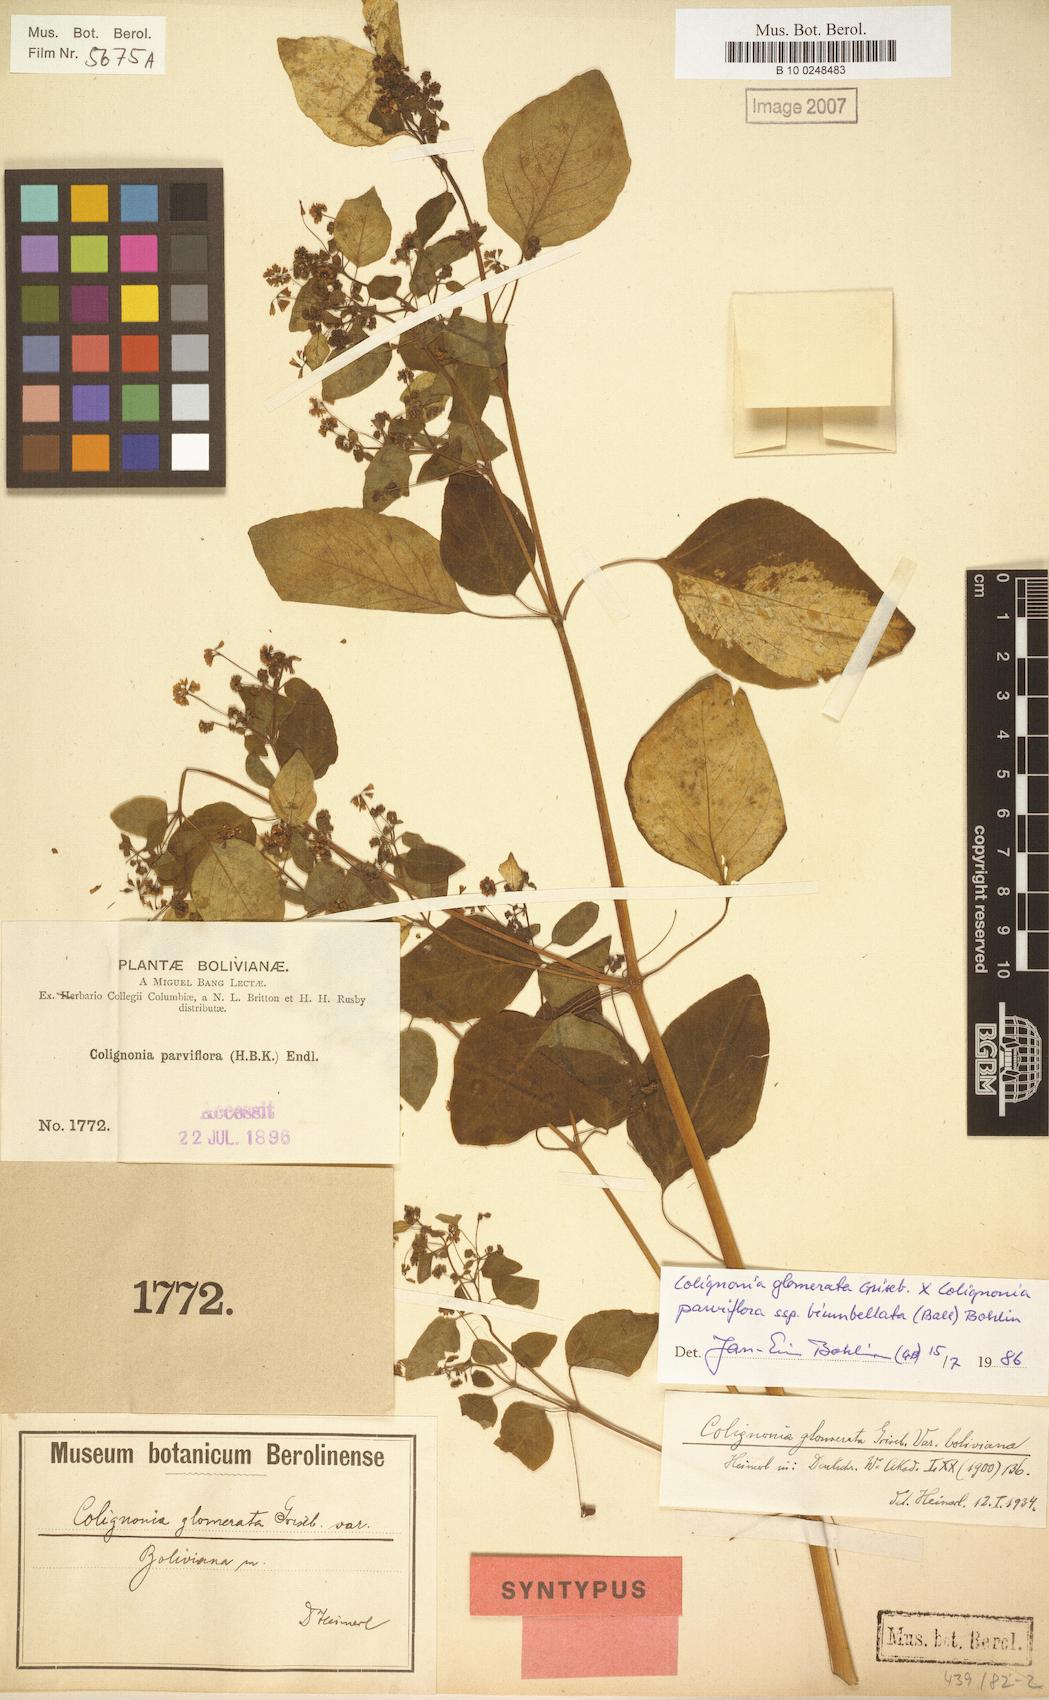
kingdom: Plantae
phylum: Tracheophyta
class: Magnoliopsida
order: Caryophyllales
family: Nyctaginaceae
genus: Colignonia
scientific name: Colignonia glomerata
